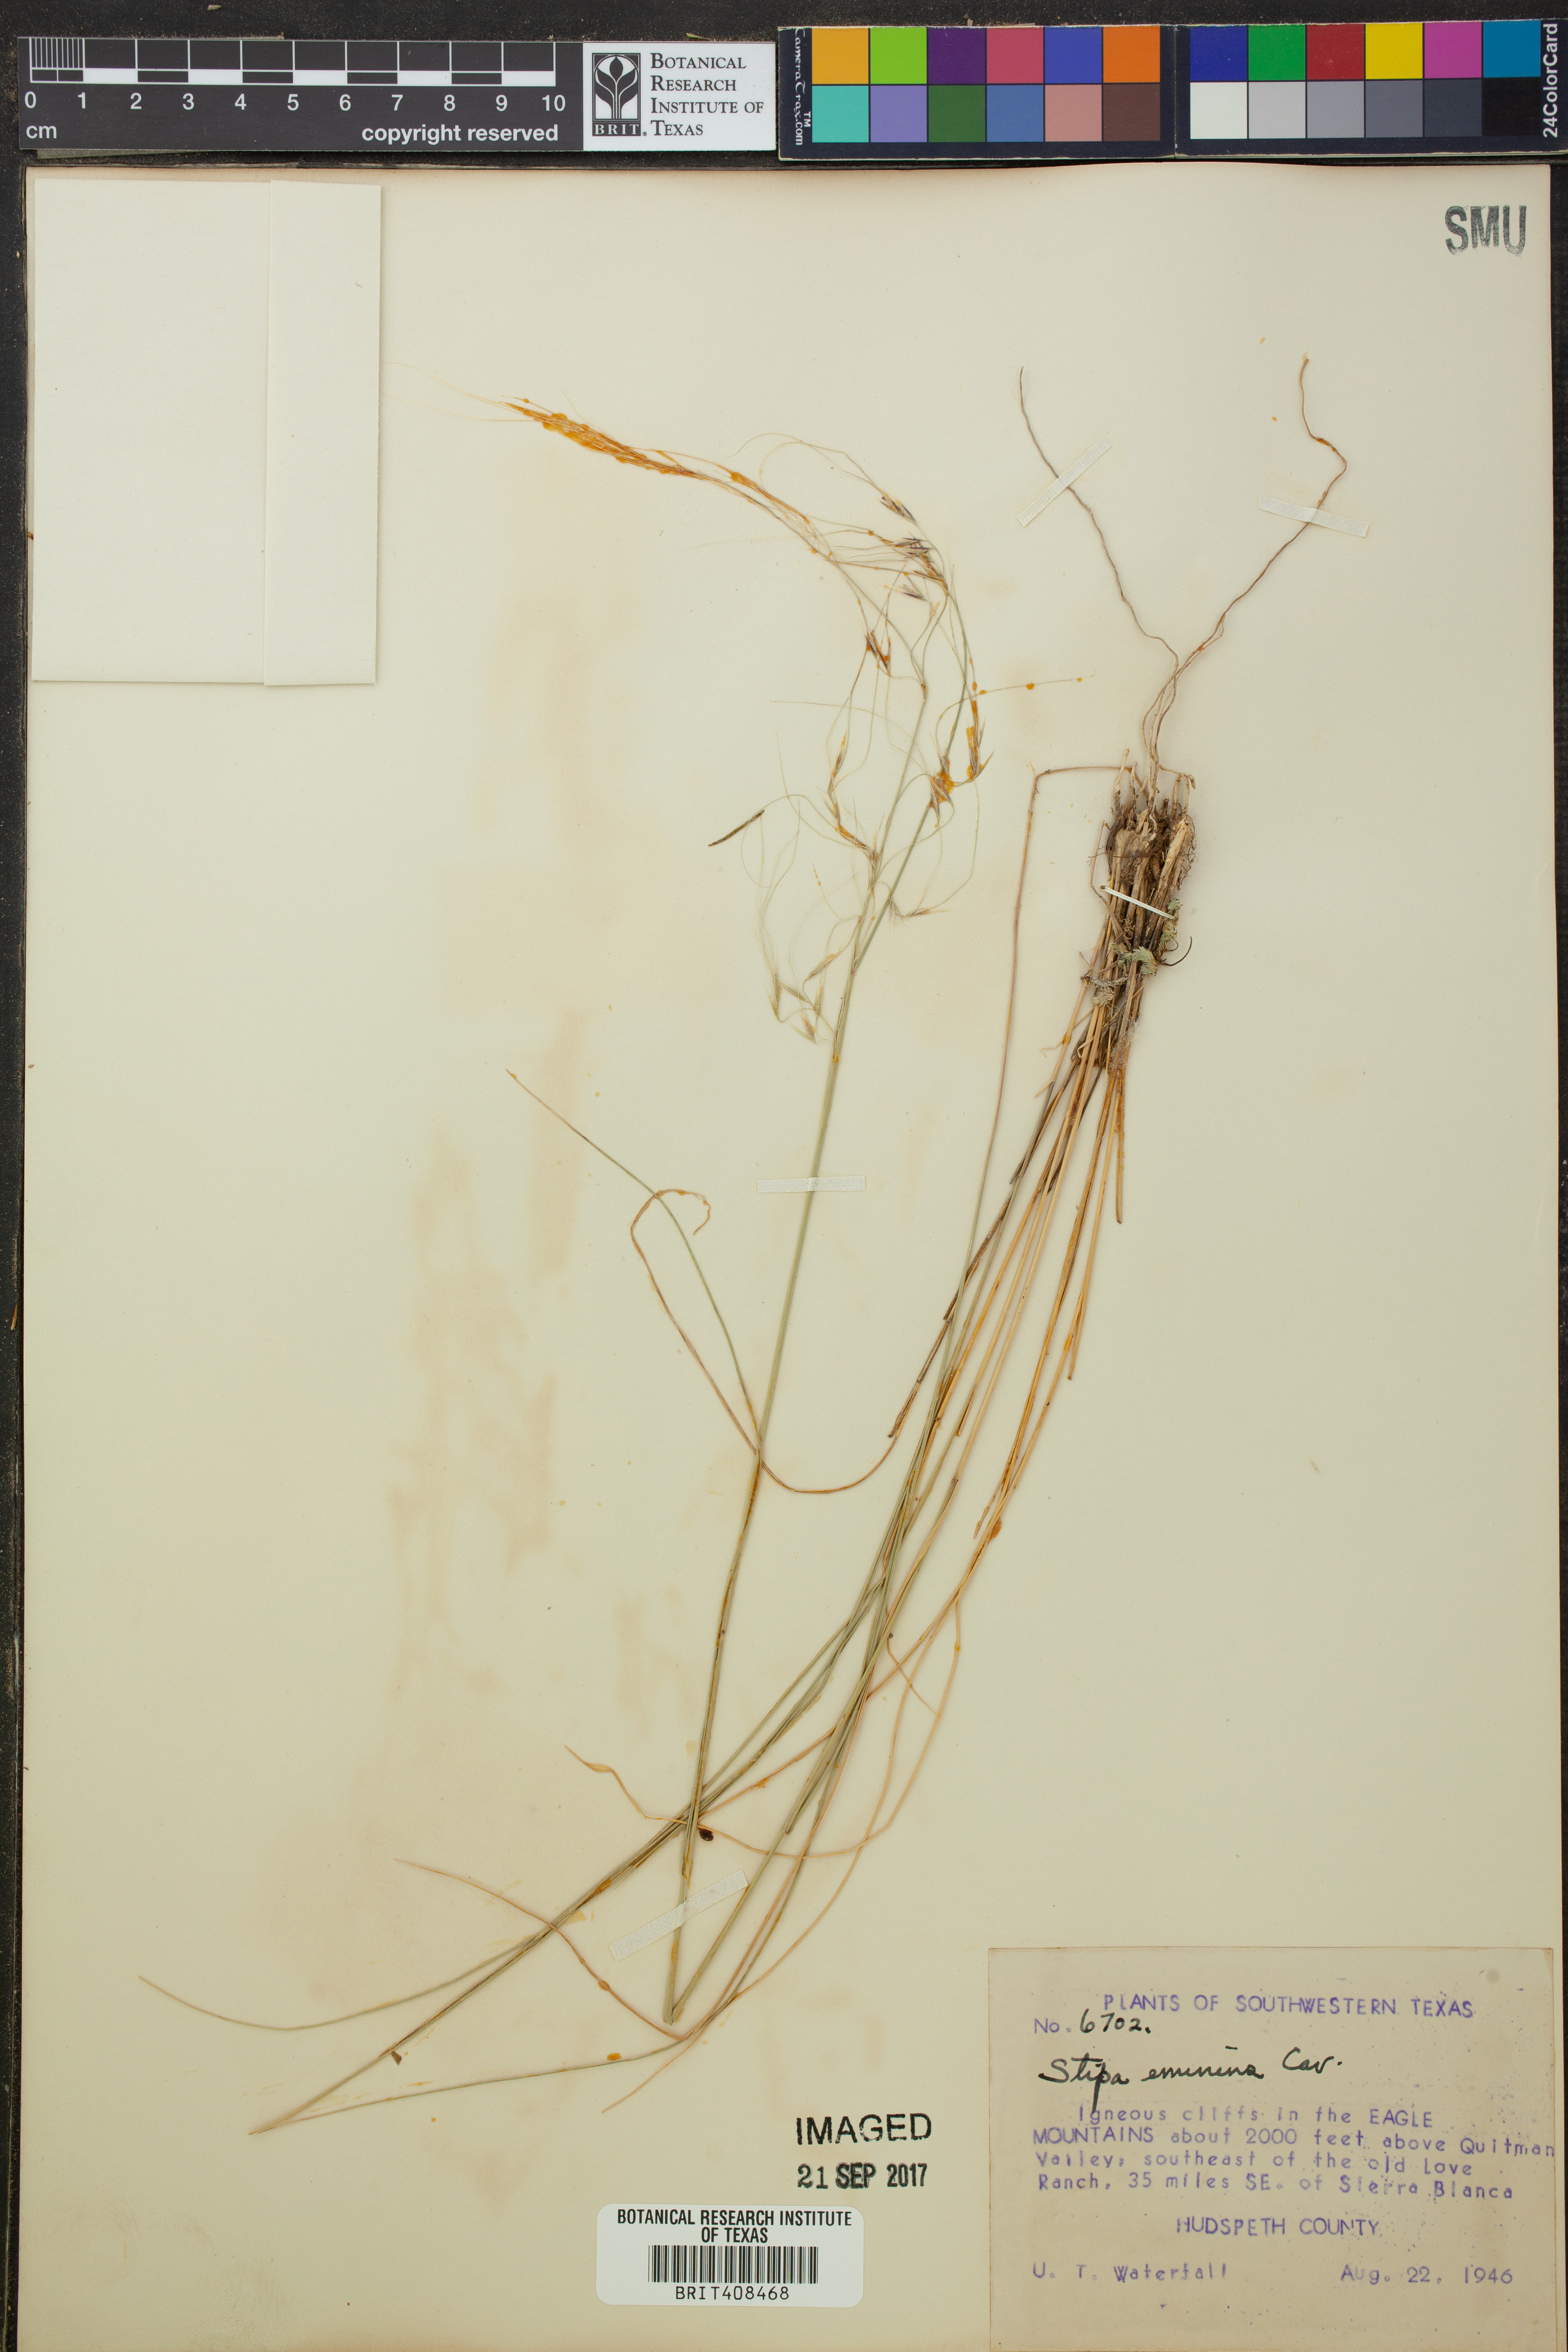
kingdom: Plantae
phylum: Tracheophyta
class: Liliopsida
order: Poales
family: Poaceae
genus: Pseudoeriocoma
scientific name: Pseudoeriocoma eminens
